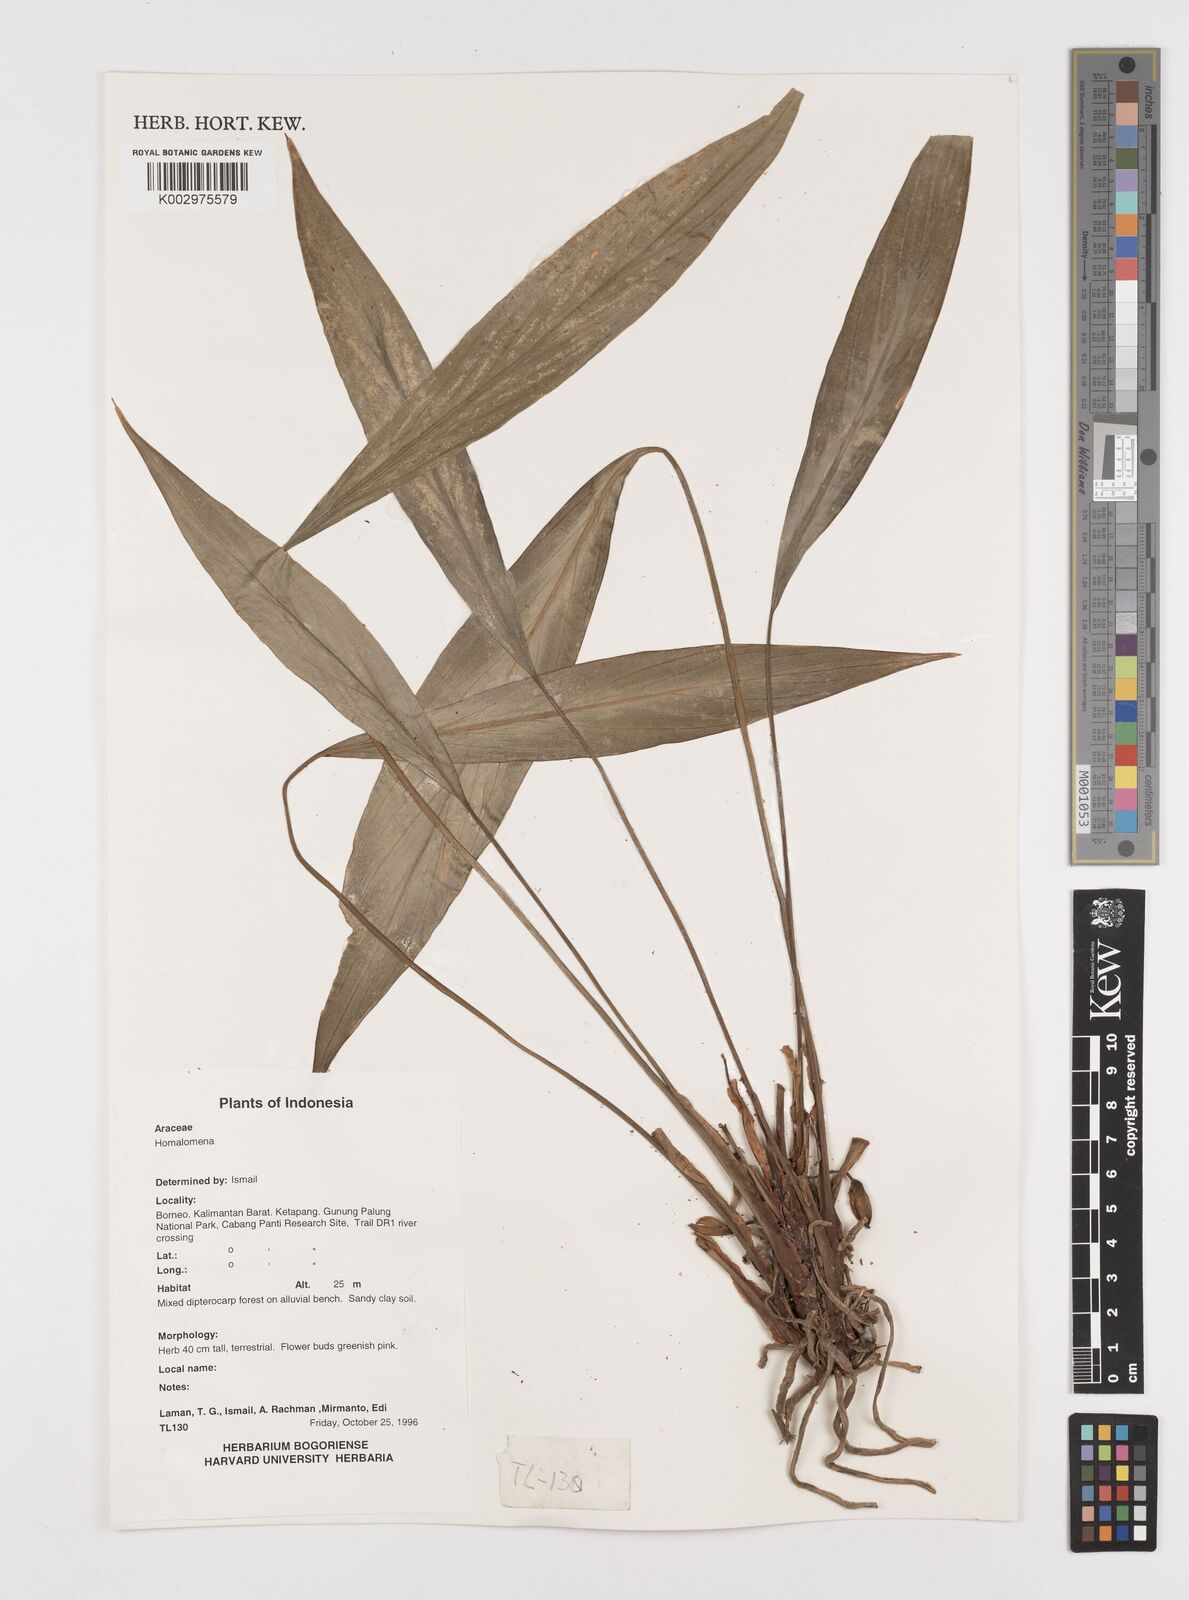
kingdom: Plantae
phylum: Tracheophyta
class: Liliopsida
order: Alismatales
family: Araceae
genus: Homalomena
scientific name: Homalomena
